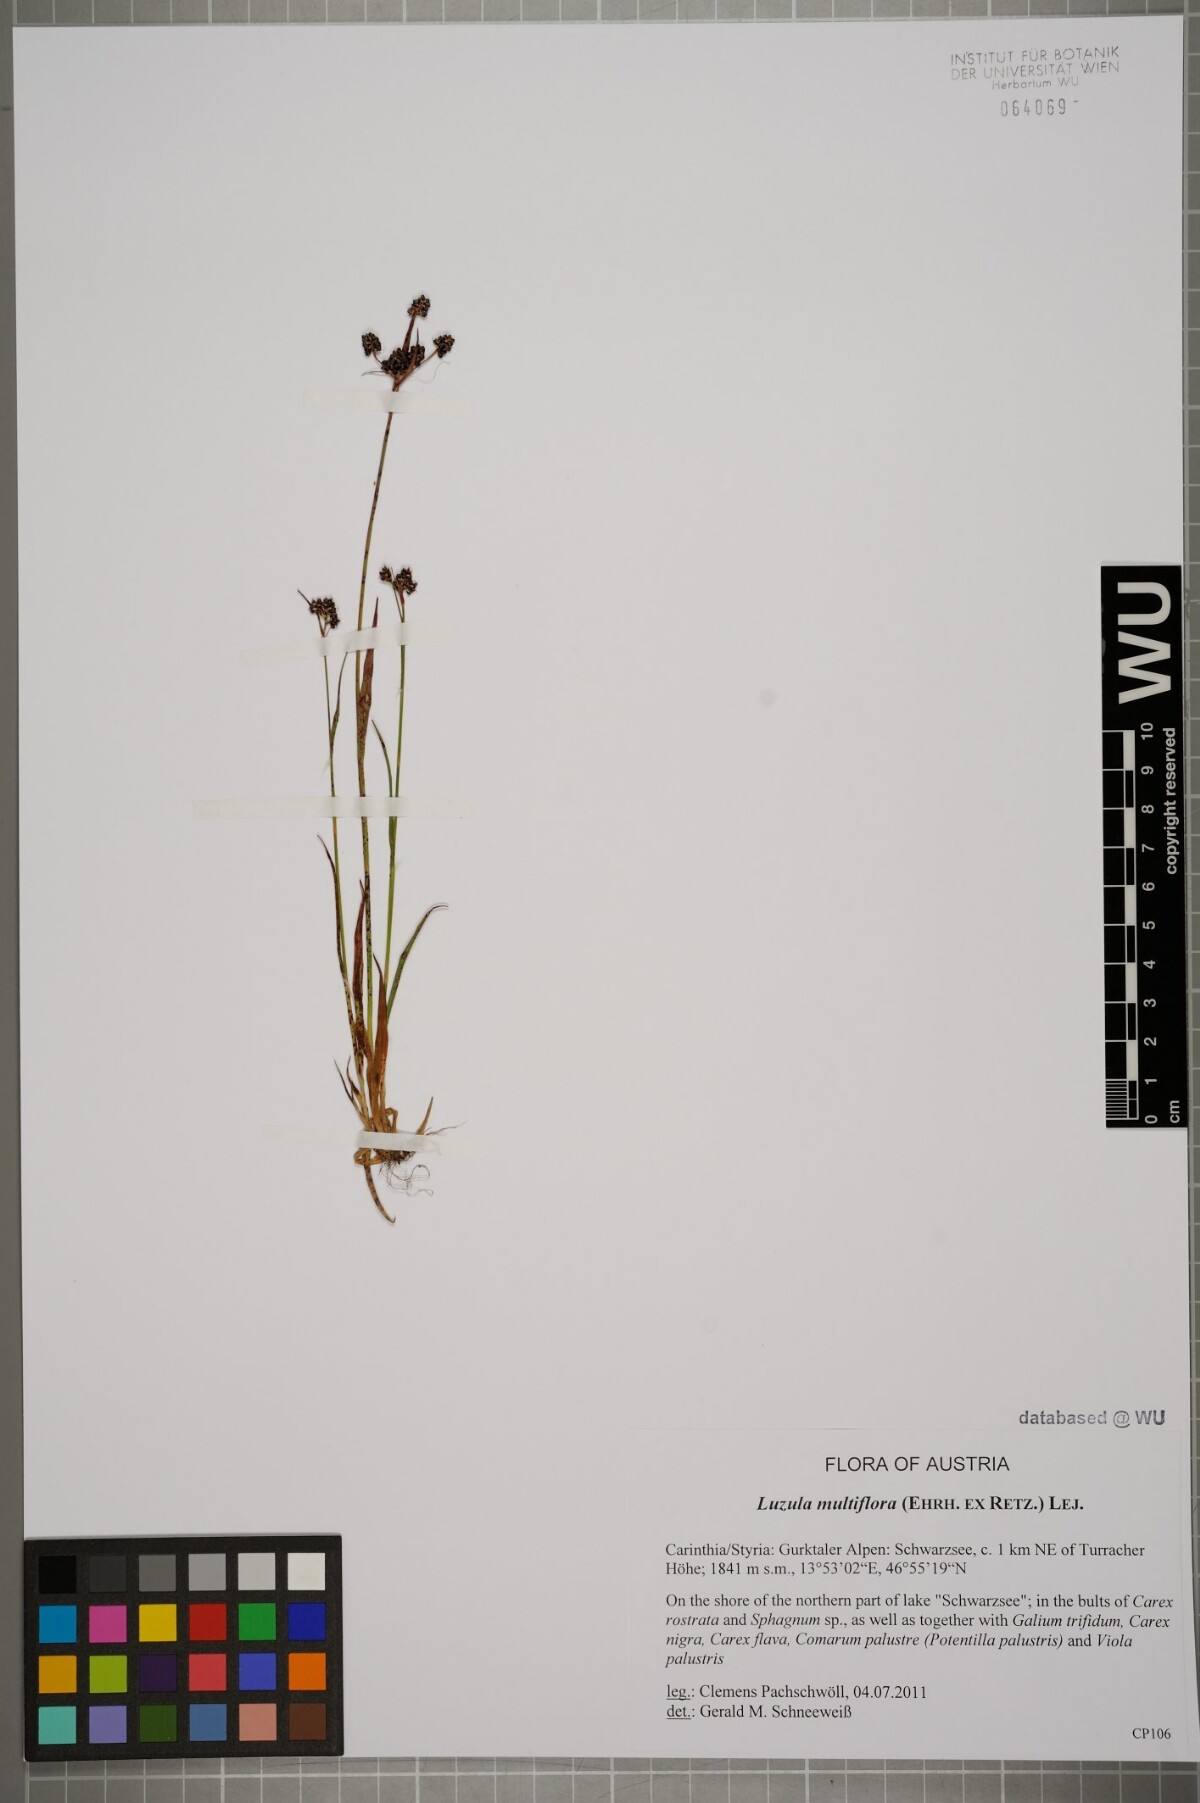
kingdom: Plantae
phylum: Tracheophyta
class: Liliopsida
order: Poales
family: Juncaceae
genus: Luzula
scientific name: Luzula multiflora
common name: Heath wood-rush
